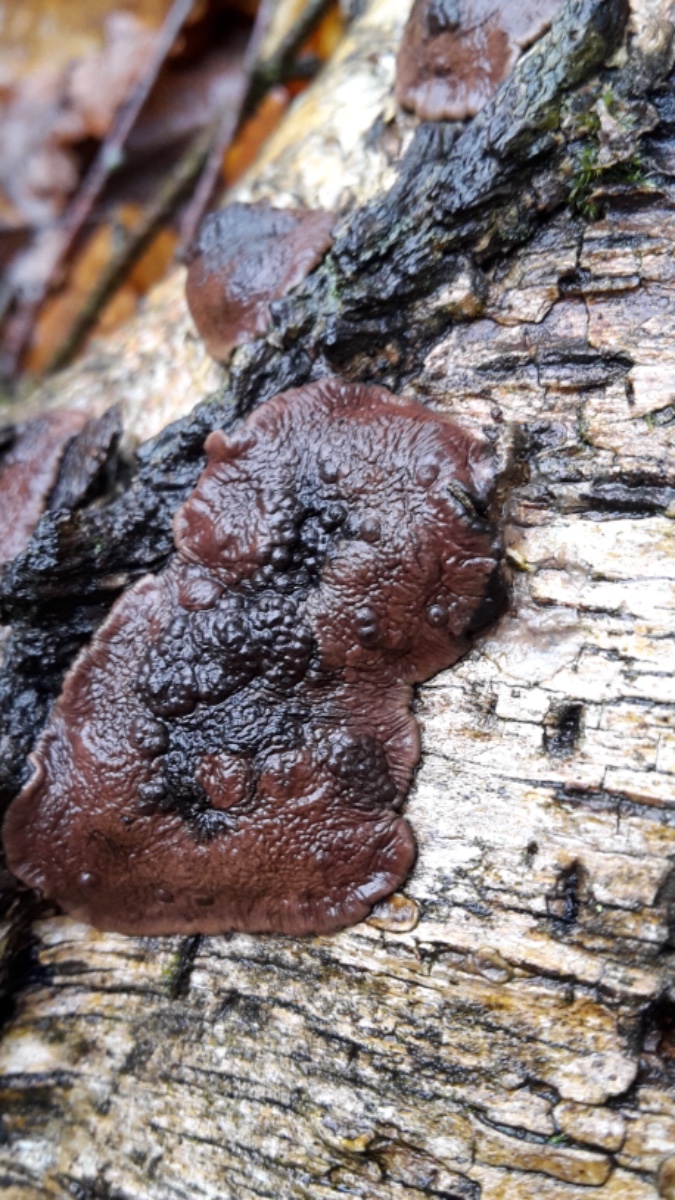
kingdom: Fungi
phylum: Ascomycota
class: Sordariomycetes
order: Xylariales
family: Hypoxylaceae
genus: Jackrogersella
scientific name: Jackrogersella multiformis
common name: foranderlig kulbær
